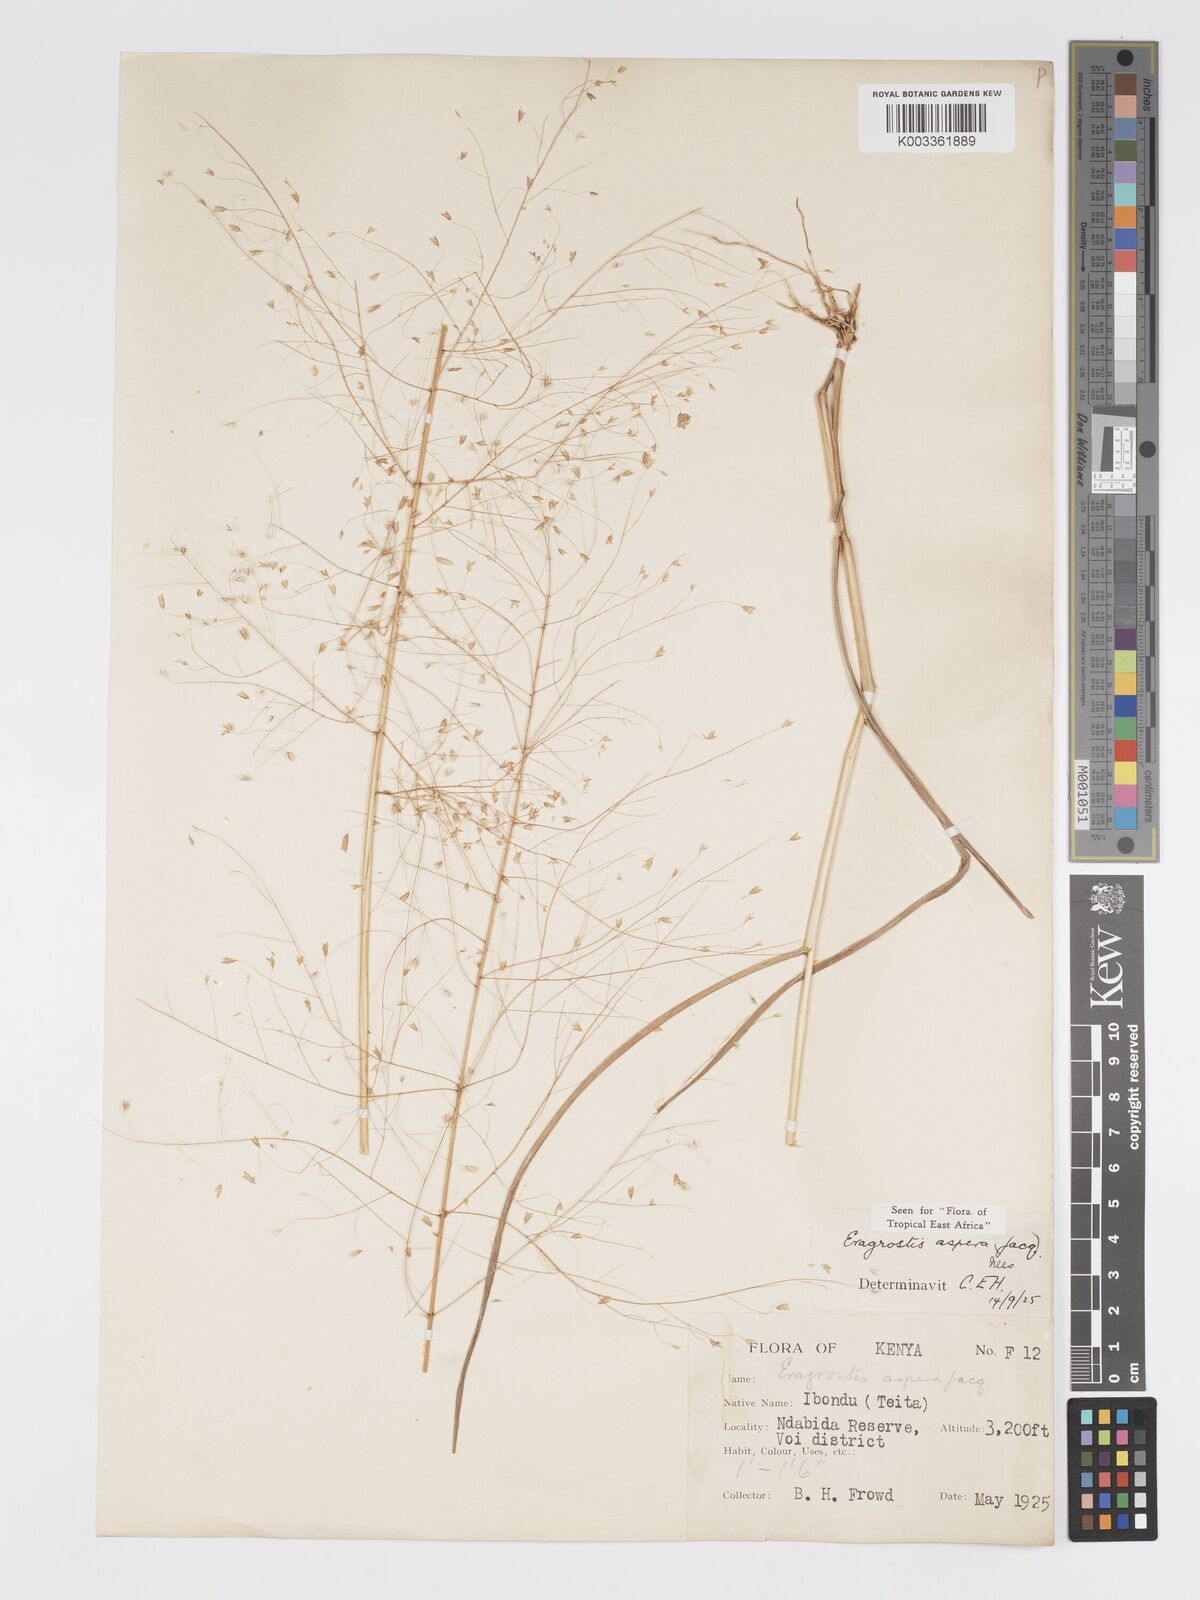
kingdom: Plantae
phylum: Tracheophyta
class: Liliopsida
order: Poales
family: Poaceae
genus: Eragrostis
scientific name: Eragrostis aspera
